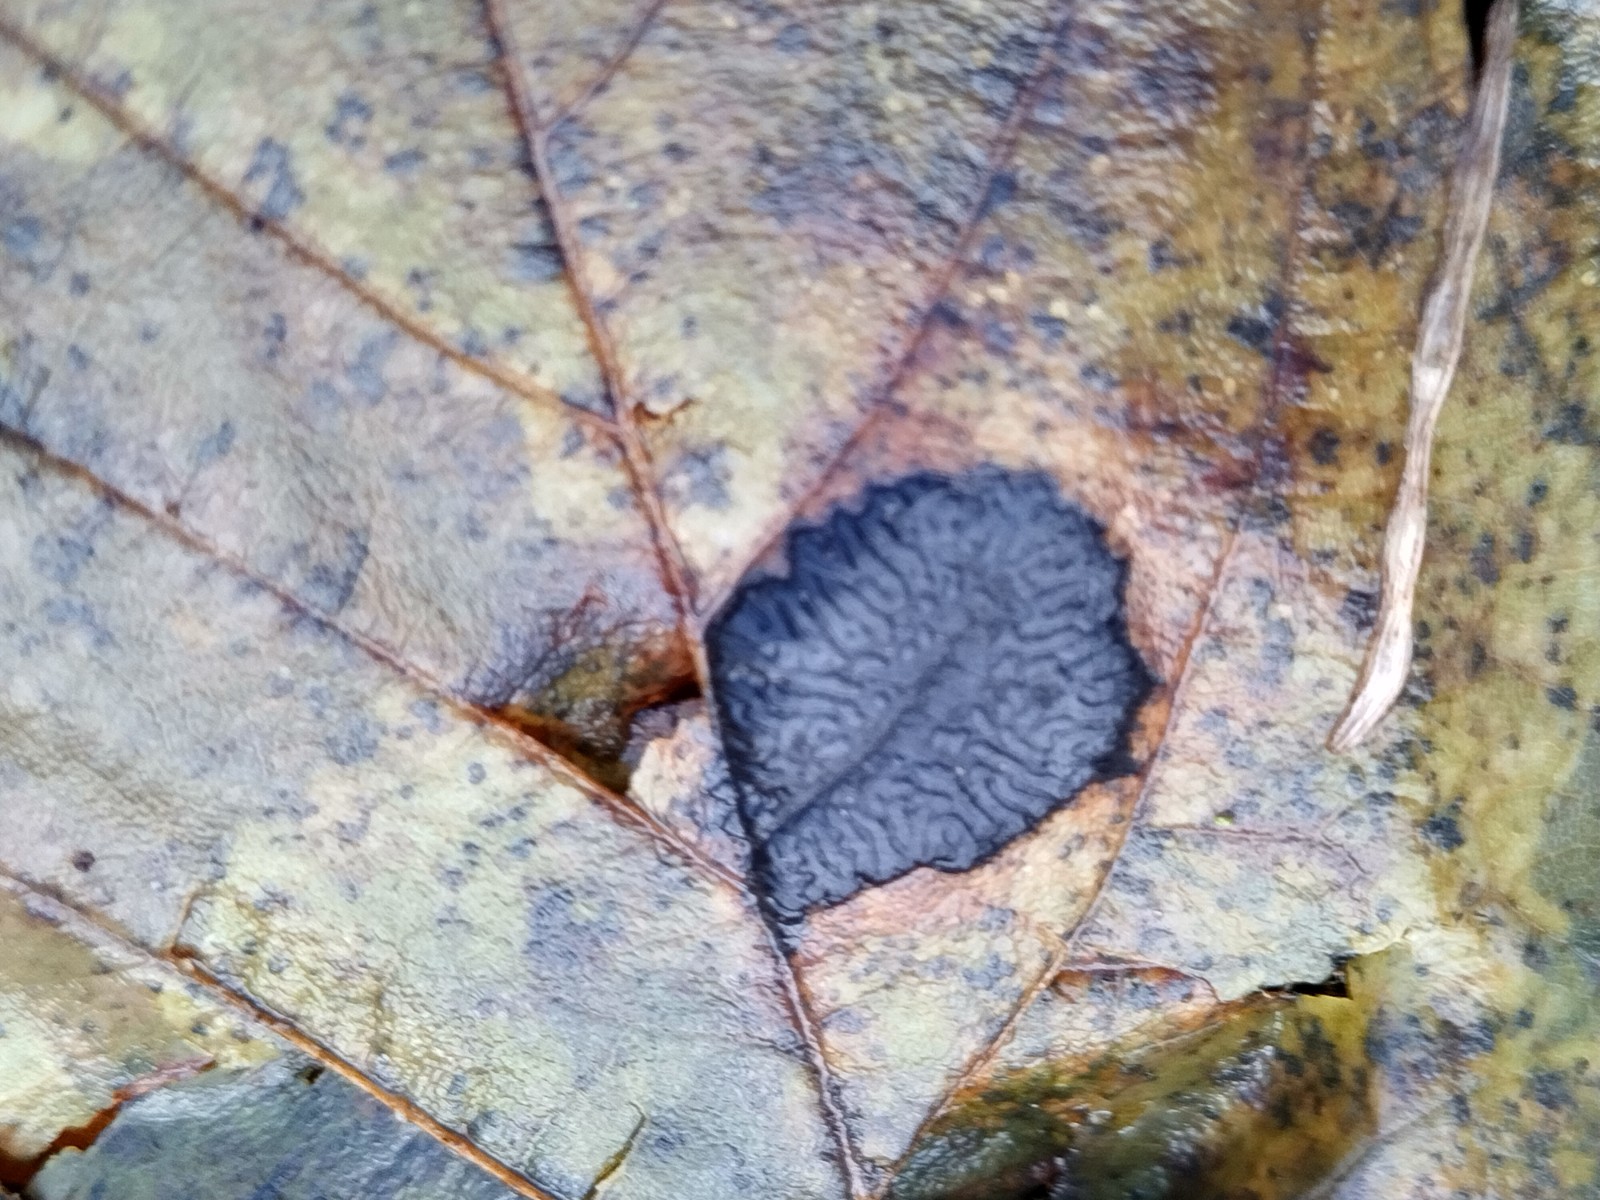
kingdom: Fungi
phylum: Ascomycota
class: Leotiomycetes
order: Rhytismatales
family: Rhytismataceae
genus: Rhytisma
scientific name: Rhytisma acerinum
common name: ahorn-rynkeplet
